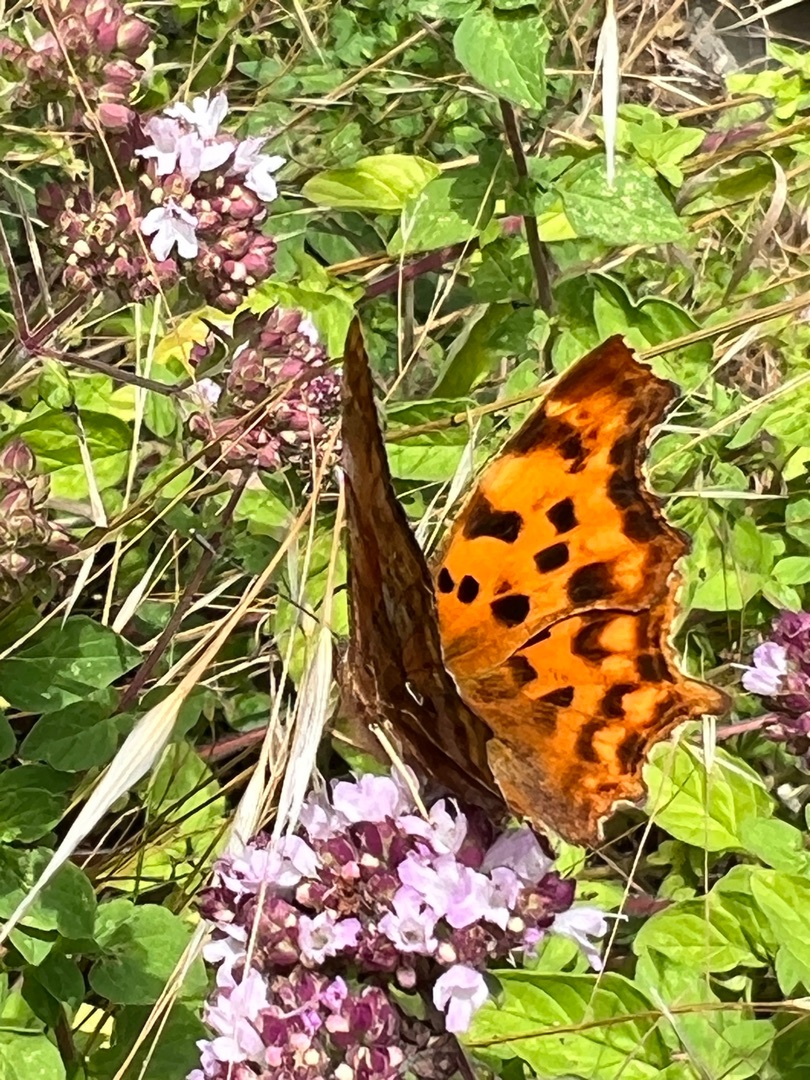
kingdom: Animalia
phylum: Arthropoda
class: Insecta
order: Lepidoptera
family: Nymphalidae
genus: Polygonia
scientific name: Polygonia c-album
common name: Det hvide C
